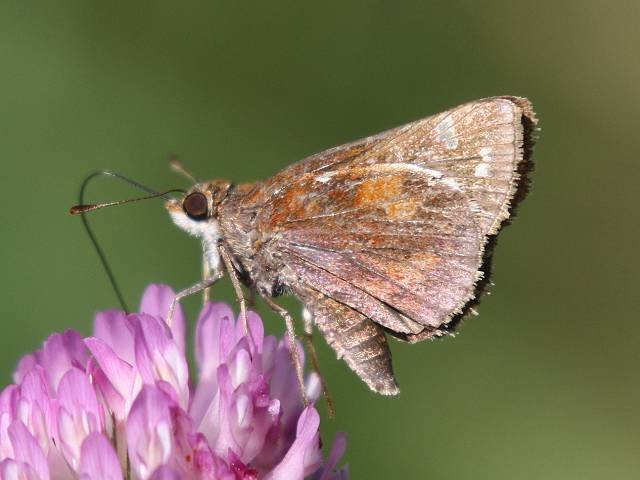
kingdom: Animalia
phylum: Arthropoda
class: Insecta
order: Lepidoptera
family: Hesperiidae
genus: Lon
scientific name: Lon zabulon
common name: Zabulon Skipper
